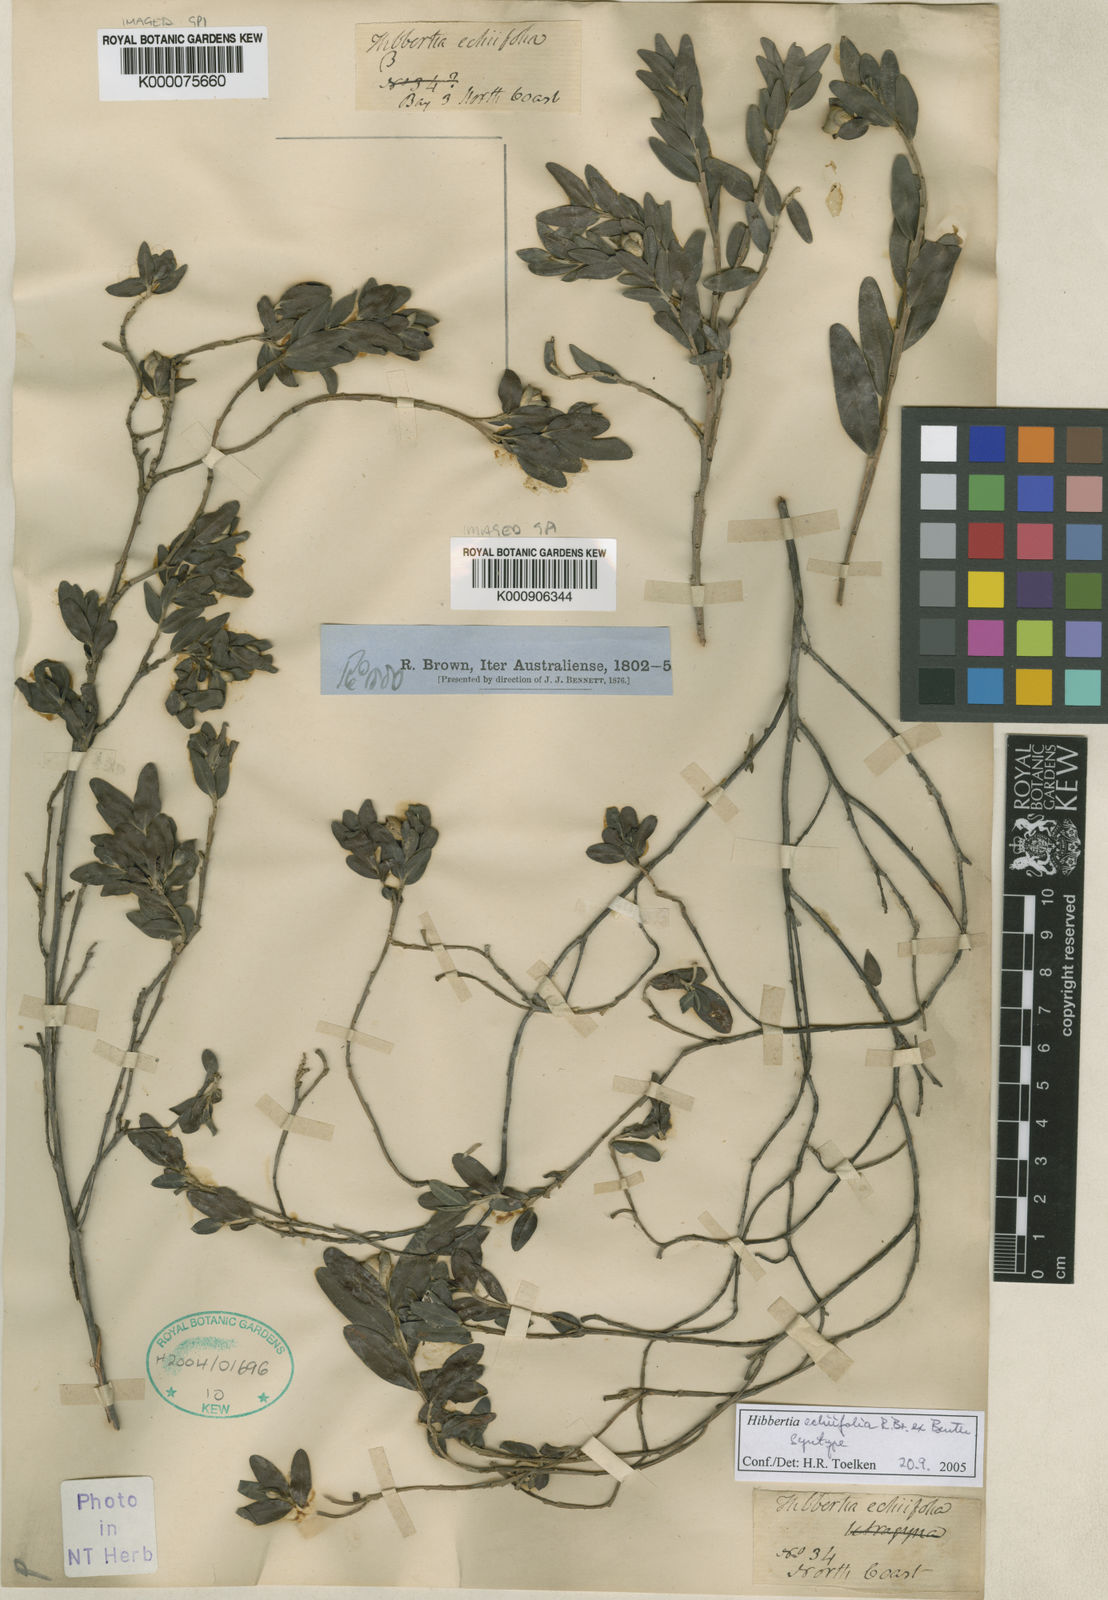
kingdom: Plantae
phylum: Tracheophyta
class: Magnoliopsida
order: Dilleniales
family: Dilleniaceae
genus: Hibbertia
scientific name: Hibbertia echiifolia
